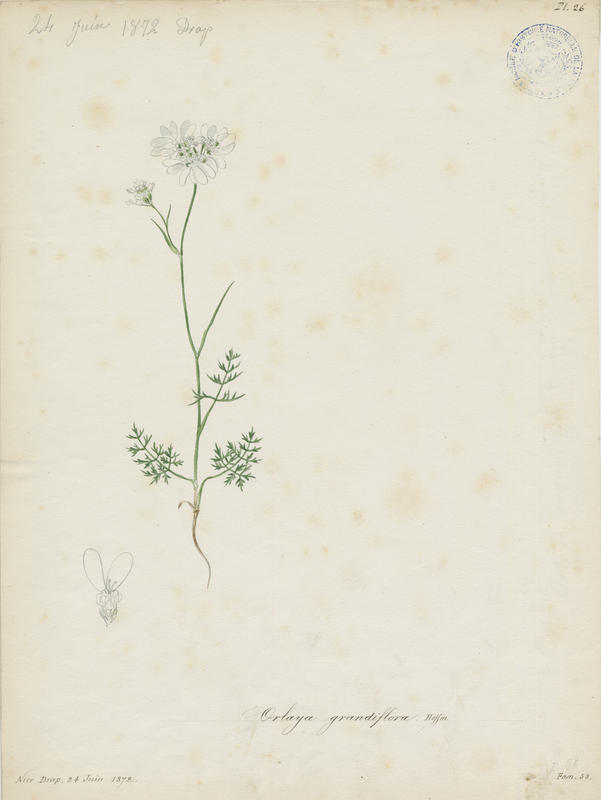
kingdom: Plantae
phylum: Tracheophyta
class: Magnoliopsida
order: Apiales
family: Apiaceae
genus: Orlaya
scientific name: Orlaya grandiflora
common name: White lace flower
